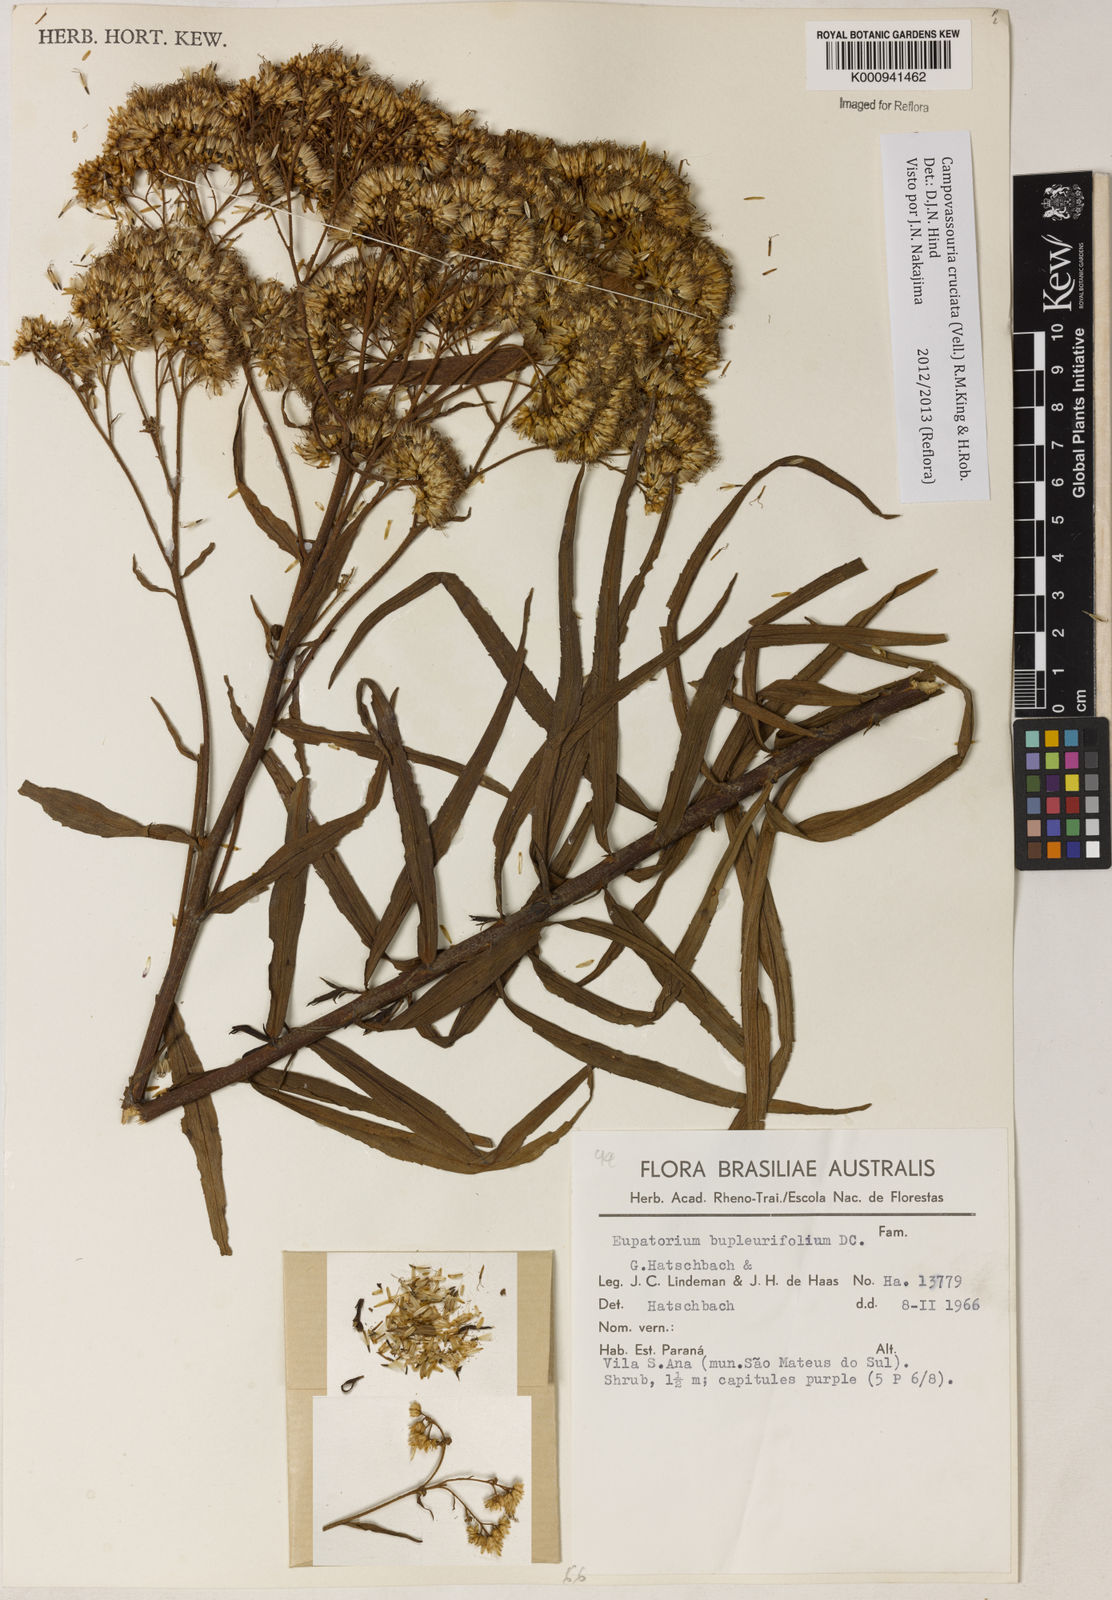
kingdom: Plantae
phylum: Tracheophyta
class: Magnoliopsida
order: Asterales
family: Asteraceae
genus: Campovassouria
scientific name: Campovassouria cruciata
